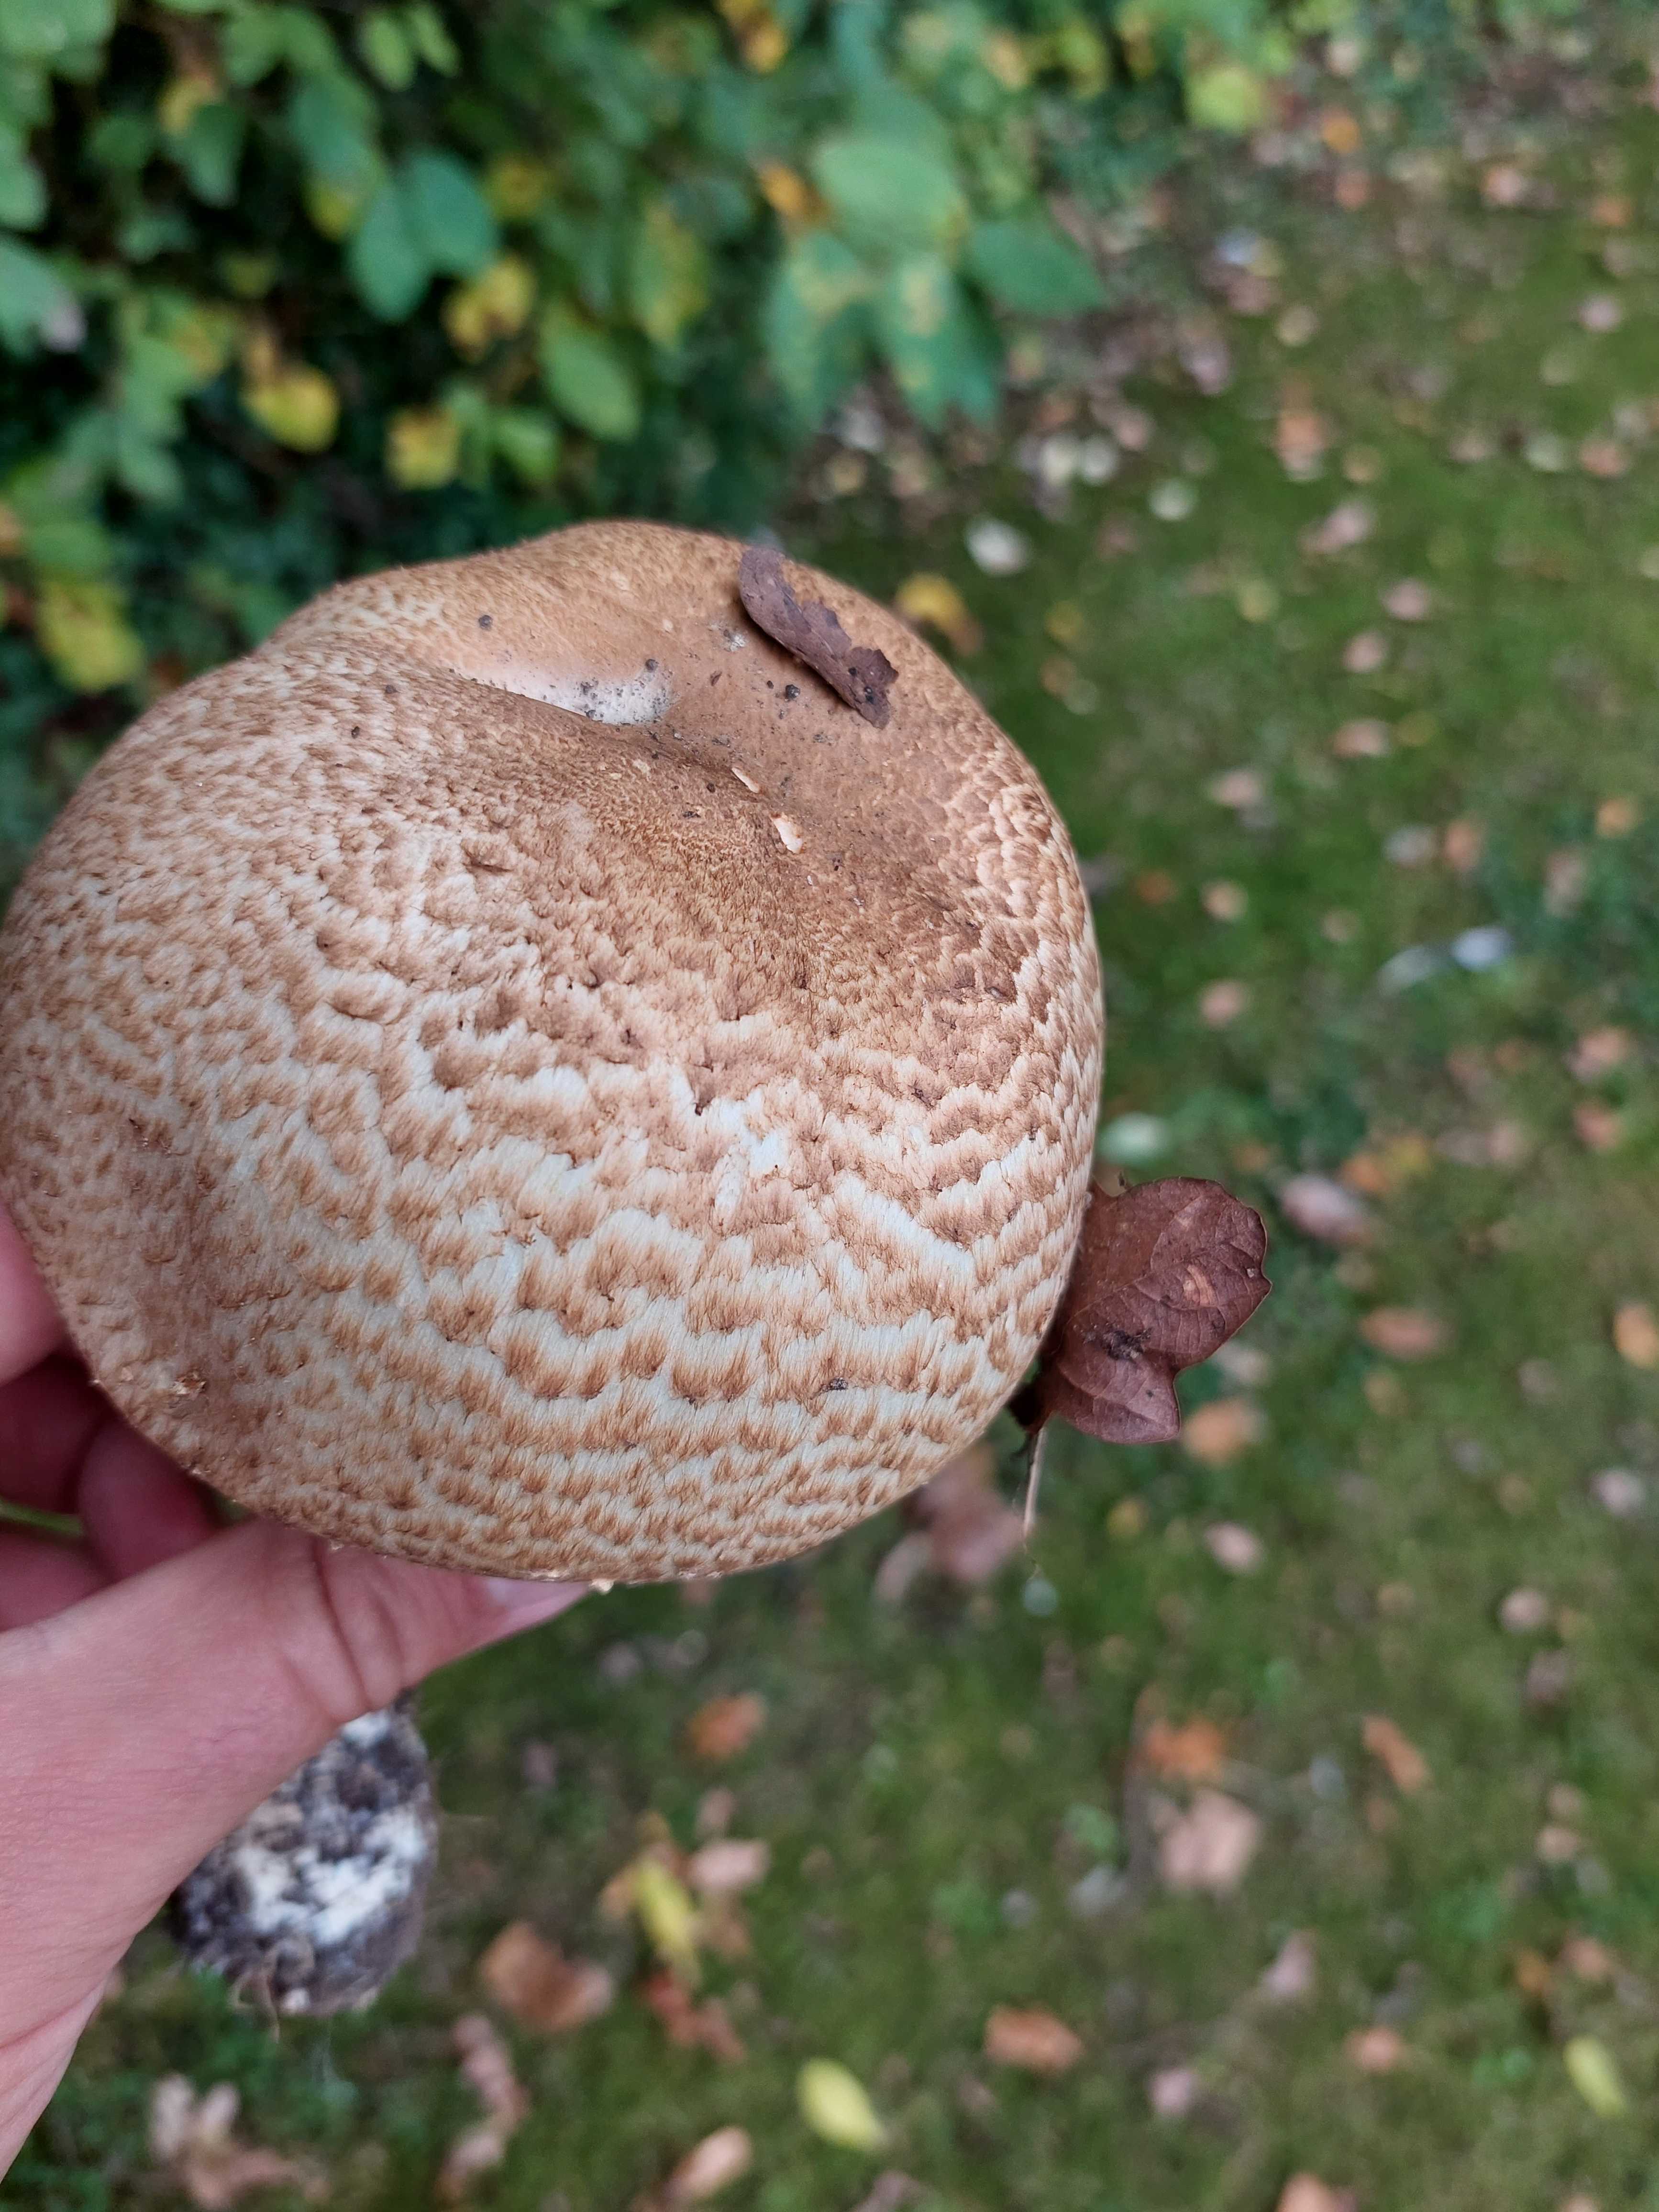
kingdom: Fungi
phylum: Basidiomycota
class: Agaricomycetes
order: Agaricales
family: Agaricaceae
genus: Agaricus
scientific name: Agaricus augustus
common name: prægtig champignon
